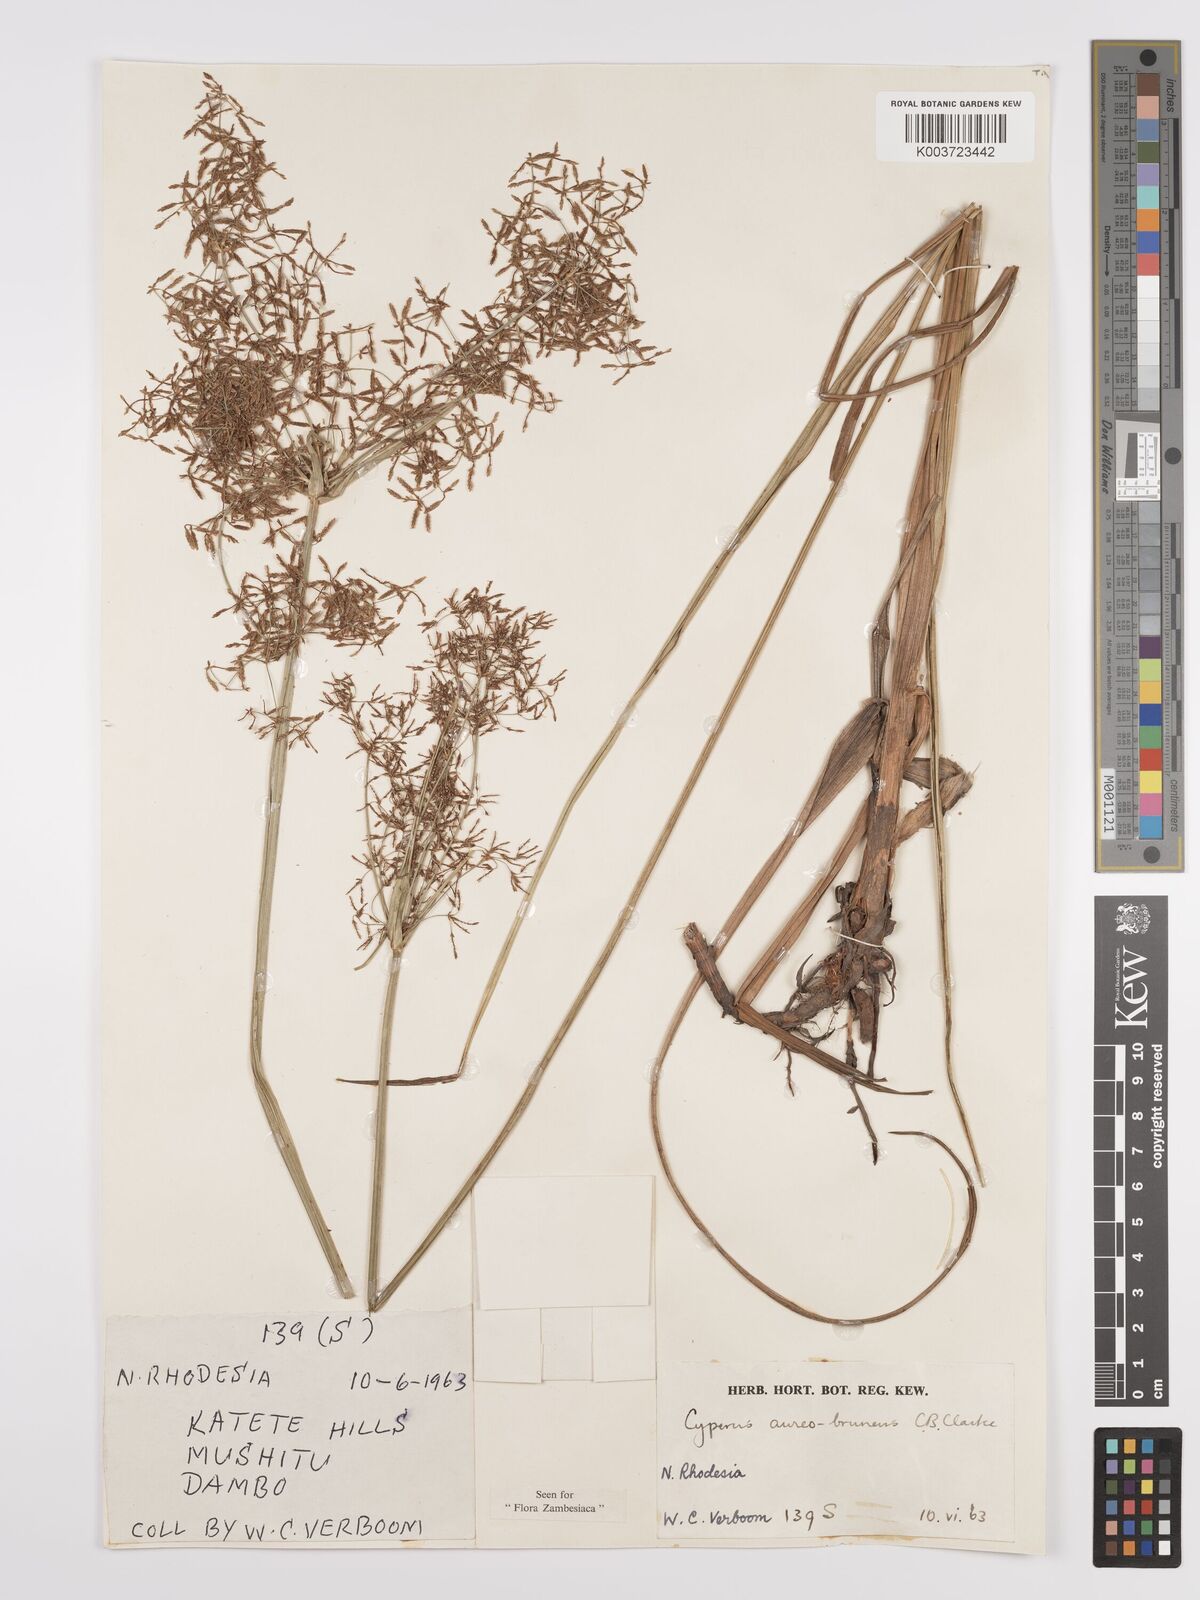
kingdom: Plantae
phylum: Tracheophyta
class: Liliopsida
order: Poales
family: Cyperaceae
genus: Cyperus
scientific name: Cyperus aureobrunneus
